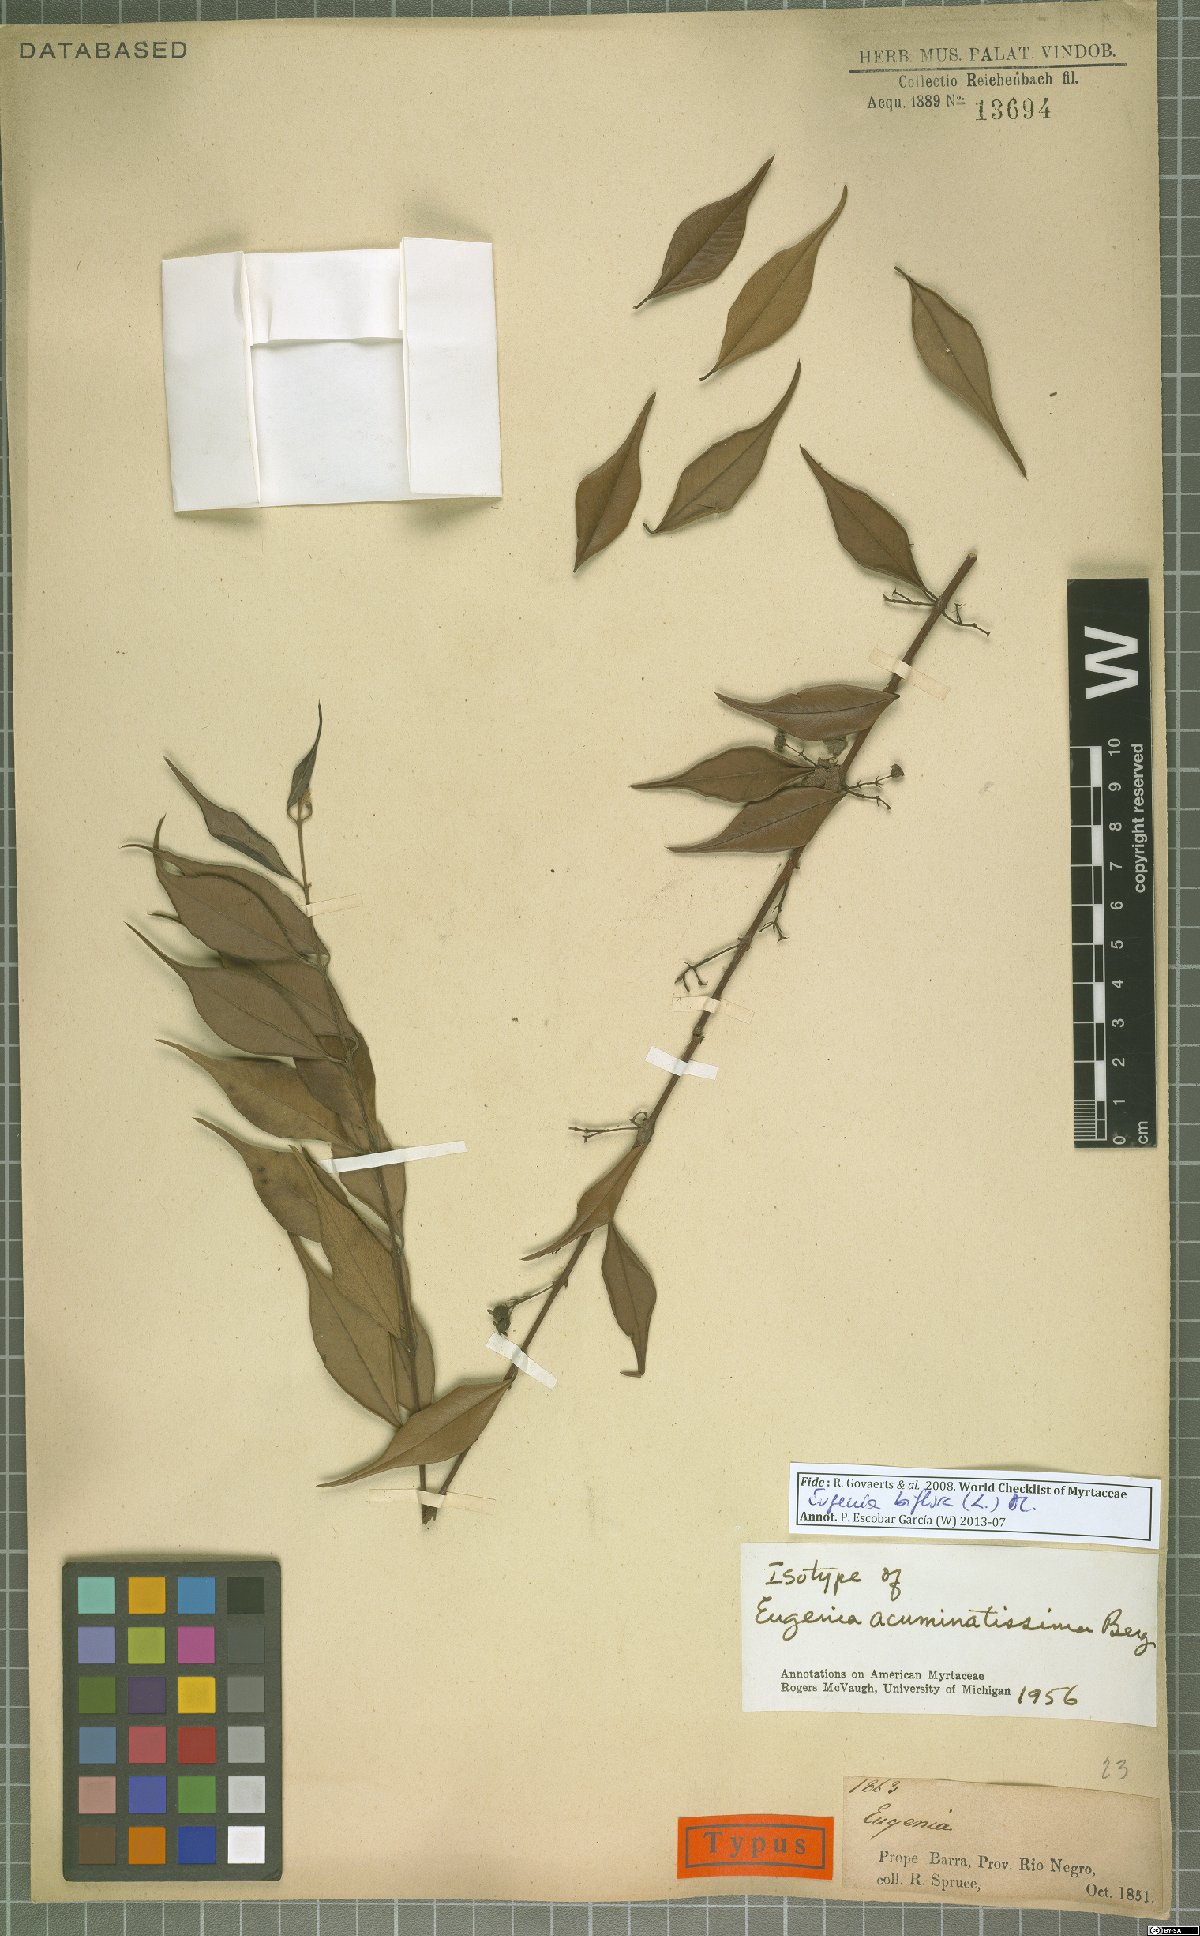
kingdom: Plantae
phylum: Tracheophyta
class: Magnoliopsida
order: Myrtales
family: Myrtaceae
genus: Eugenia
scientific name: Eugenia biflora
